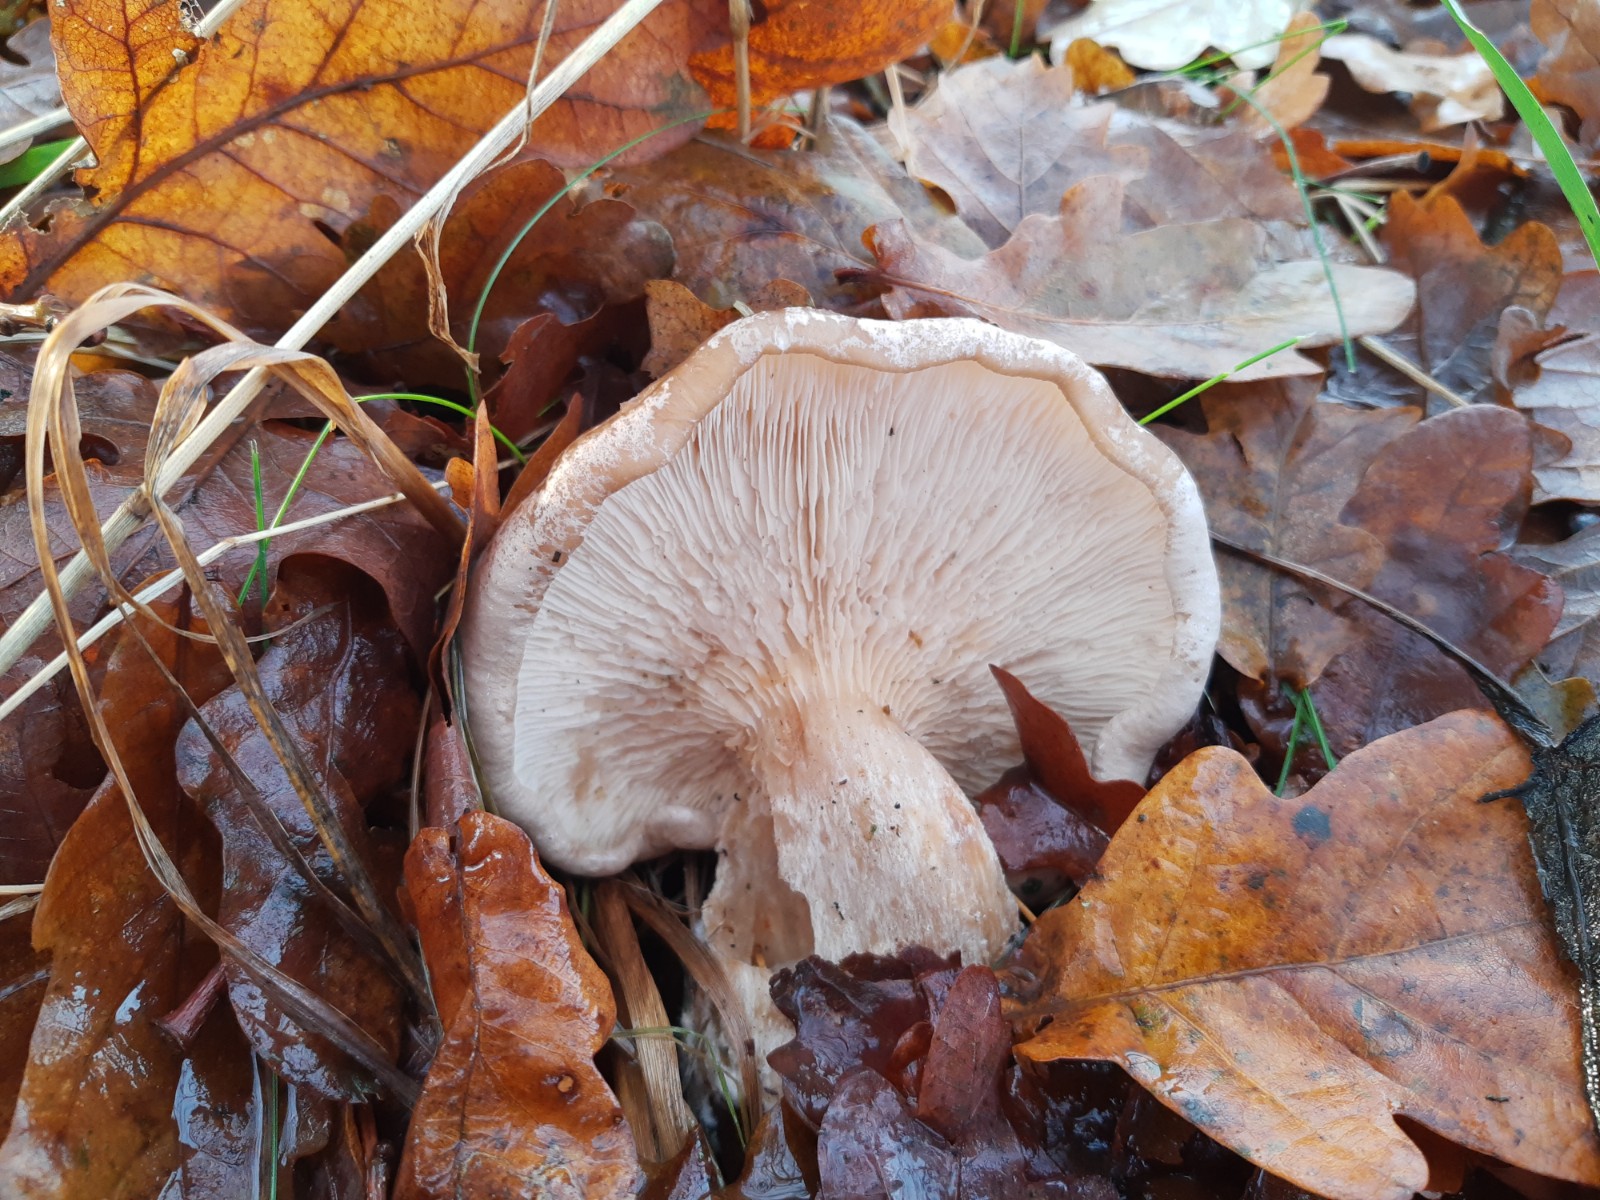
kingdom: Fungi
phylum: Basidiomycota
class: Agaricomycetes
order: Agaricales
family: Tricholomataceae
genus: Clitocybe
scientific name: Clitocybe nebularis
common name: tåge-tragthat
